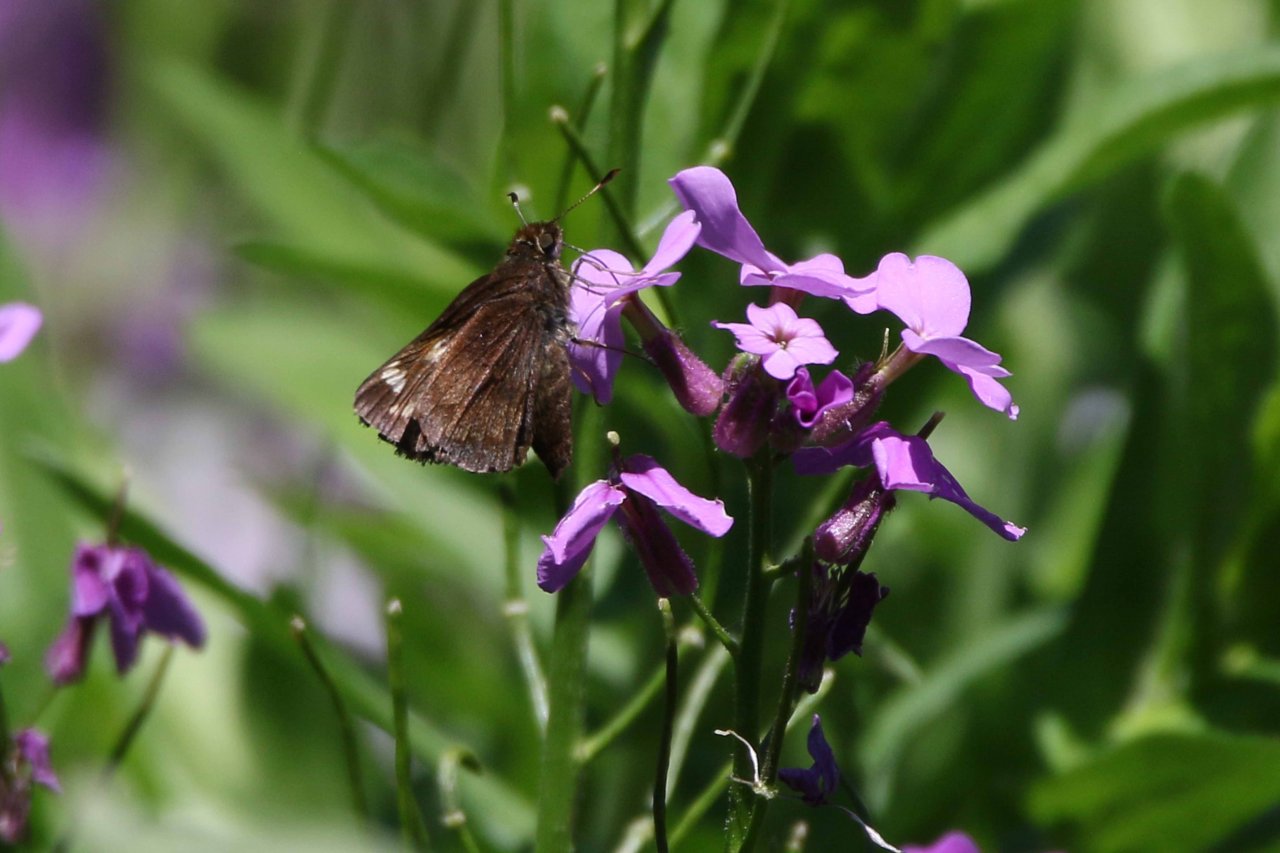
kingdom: Animalia
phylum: Arthropoda
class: Insecta
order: Lepidoptera
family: Hesperiidae
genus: Lon
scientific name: Lon hobomok
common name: Hobomok Skipper
